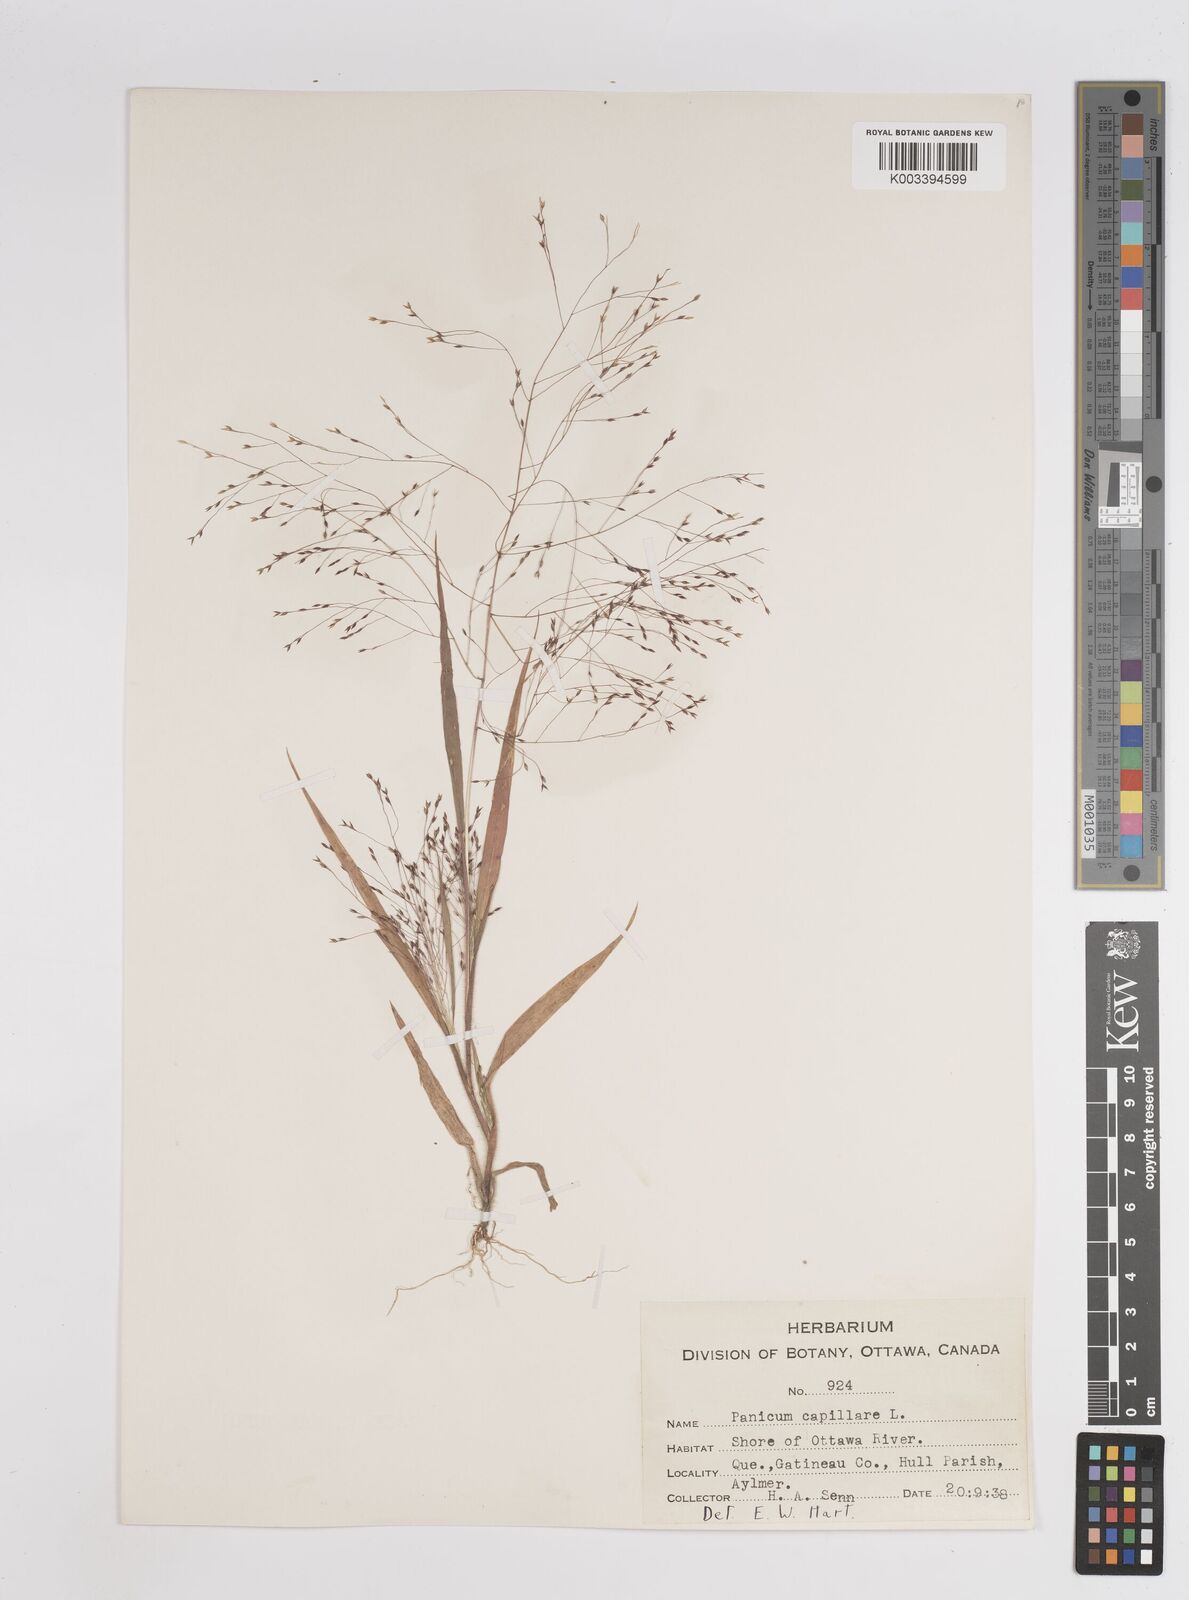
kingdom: Plantae
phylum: Tracheophyta
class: Liliopsida
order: Poales
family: Poaceae
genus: Panicum
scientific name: Panicum capillare
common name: Witch-grass
